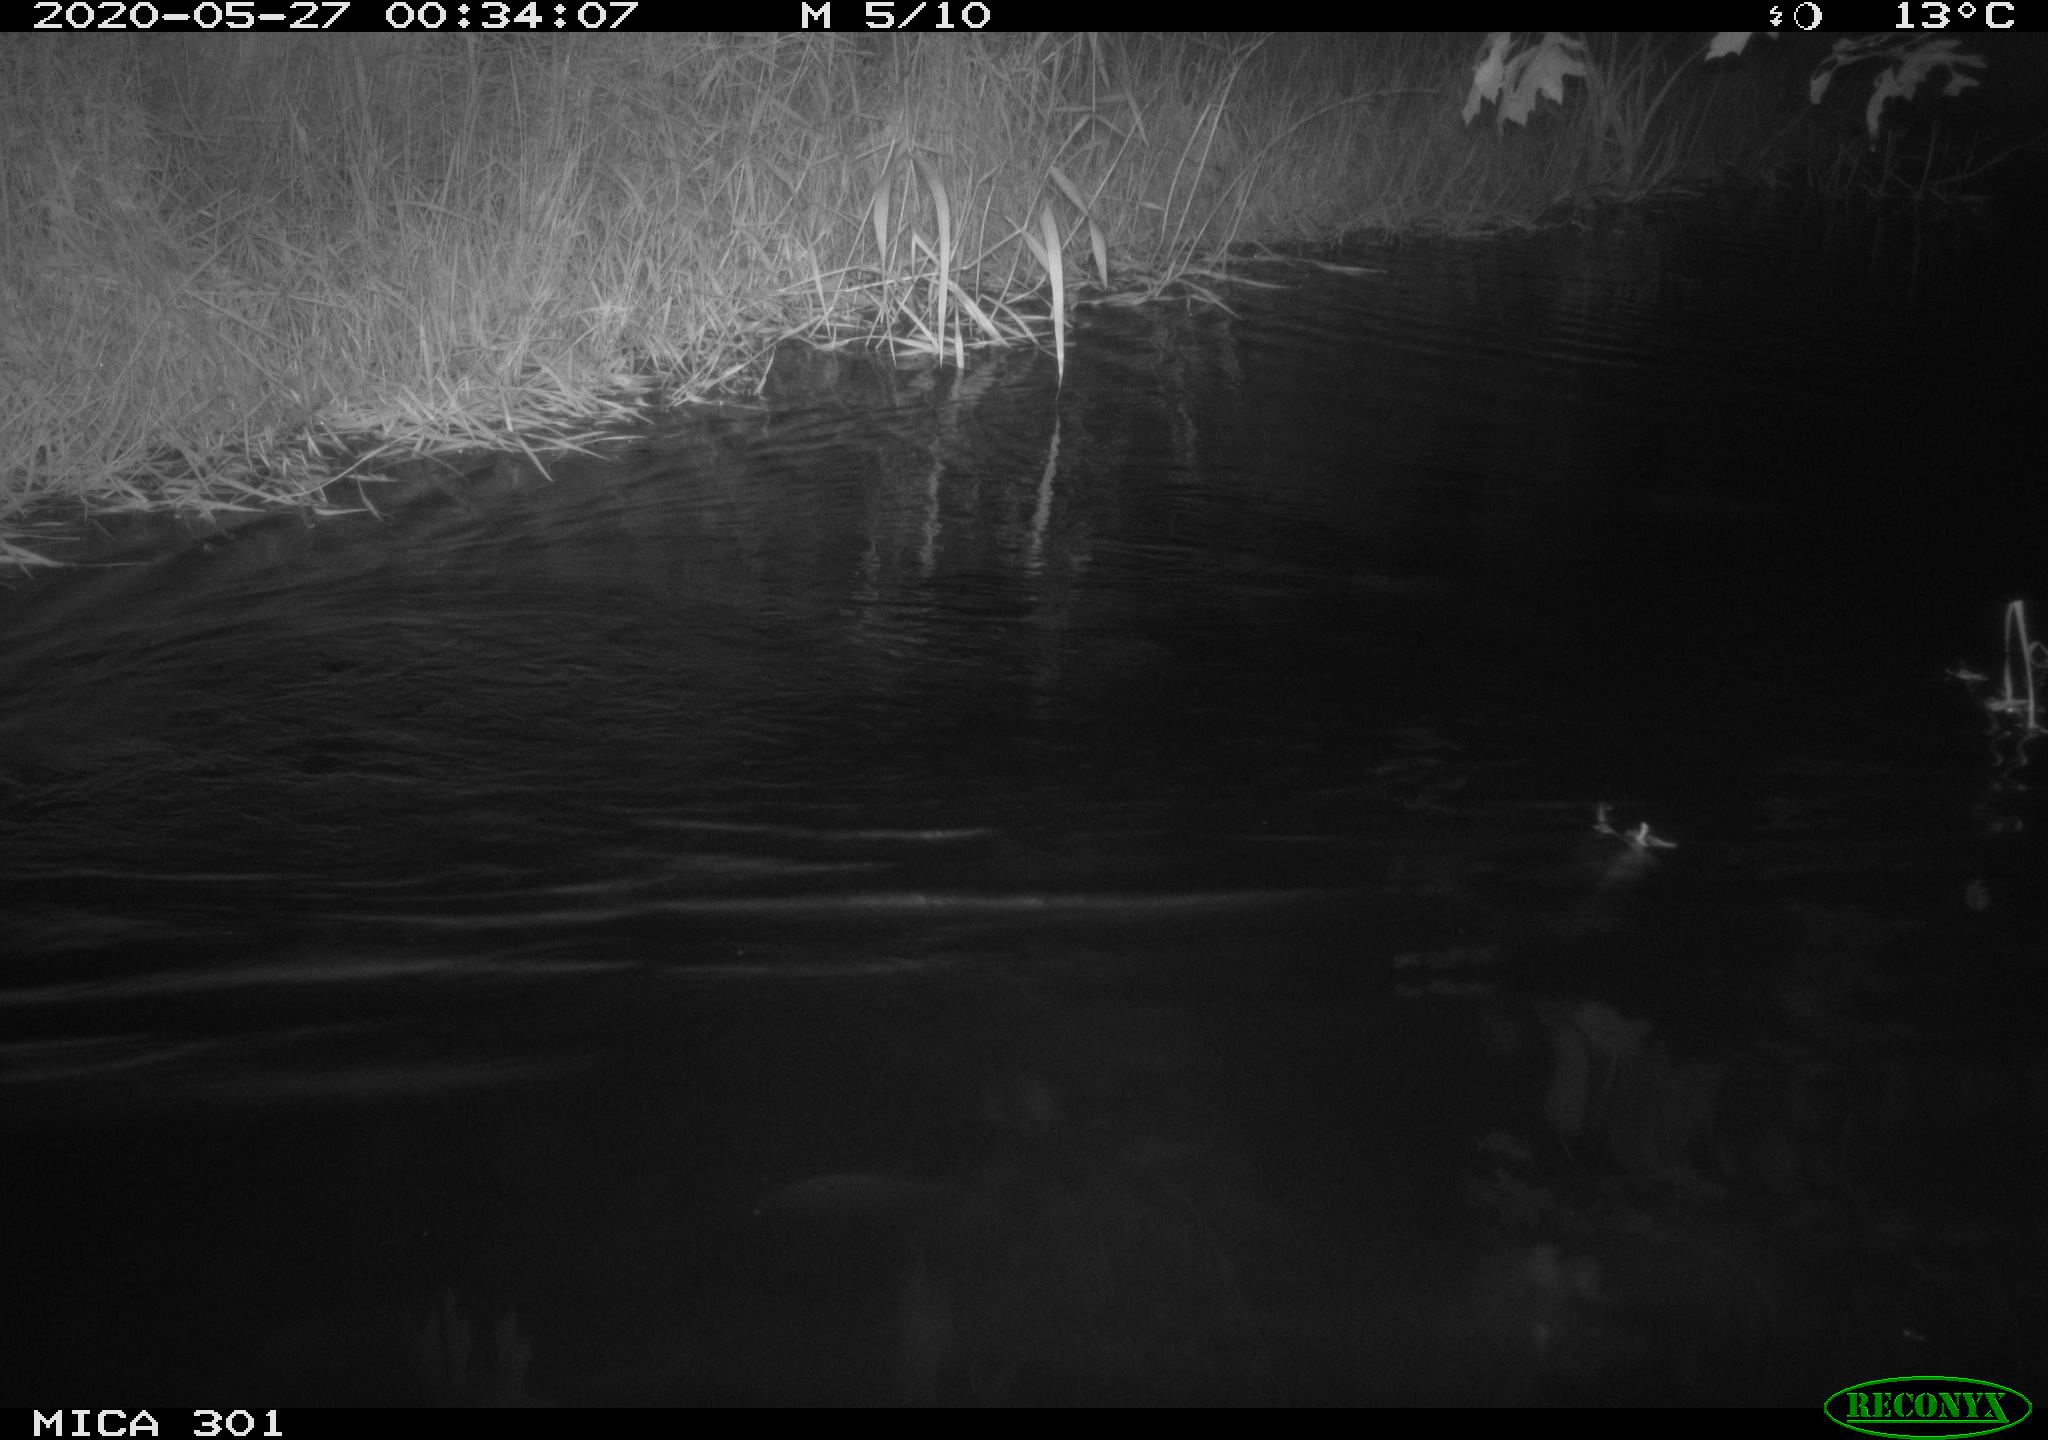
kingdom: Animalia
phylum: Chordata
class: Mammalia
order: Rodentia
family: Castoridae
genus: Castor
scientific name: Castor fiber
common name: Eurasian beaver
